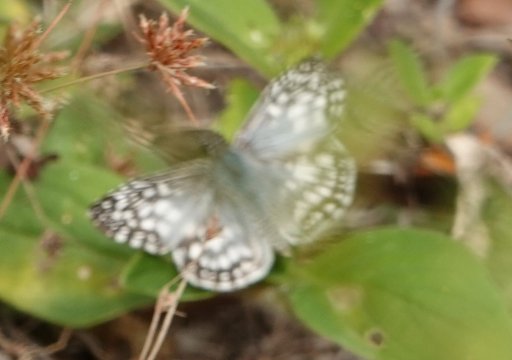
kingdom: Animalia
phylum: Arthropoda
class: Insecta
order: Lepidoptera
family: Hesperiidae
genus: Pyrgus
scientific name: Pyrgus oileus
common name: Tropical Checkered-Skipper
